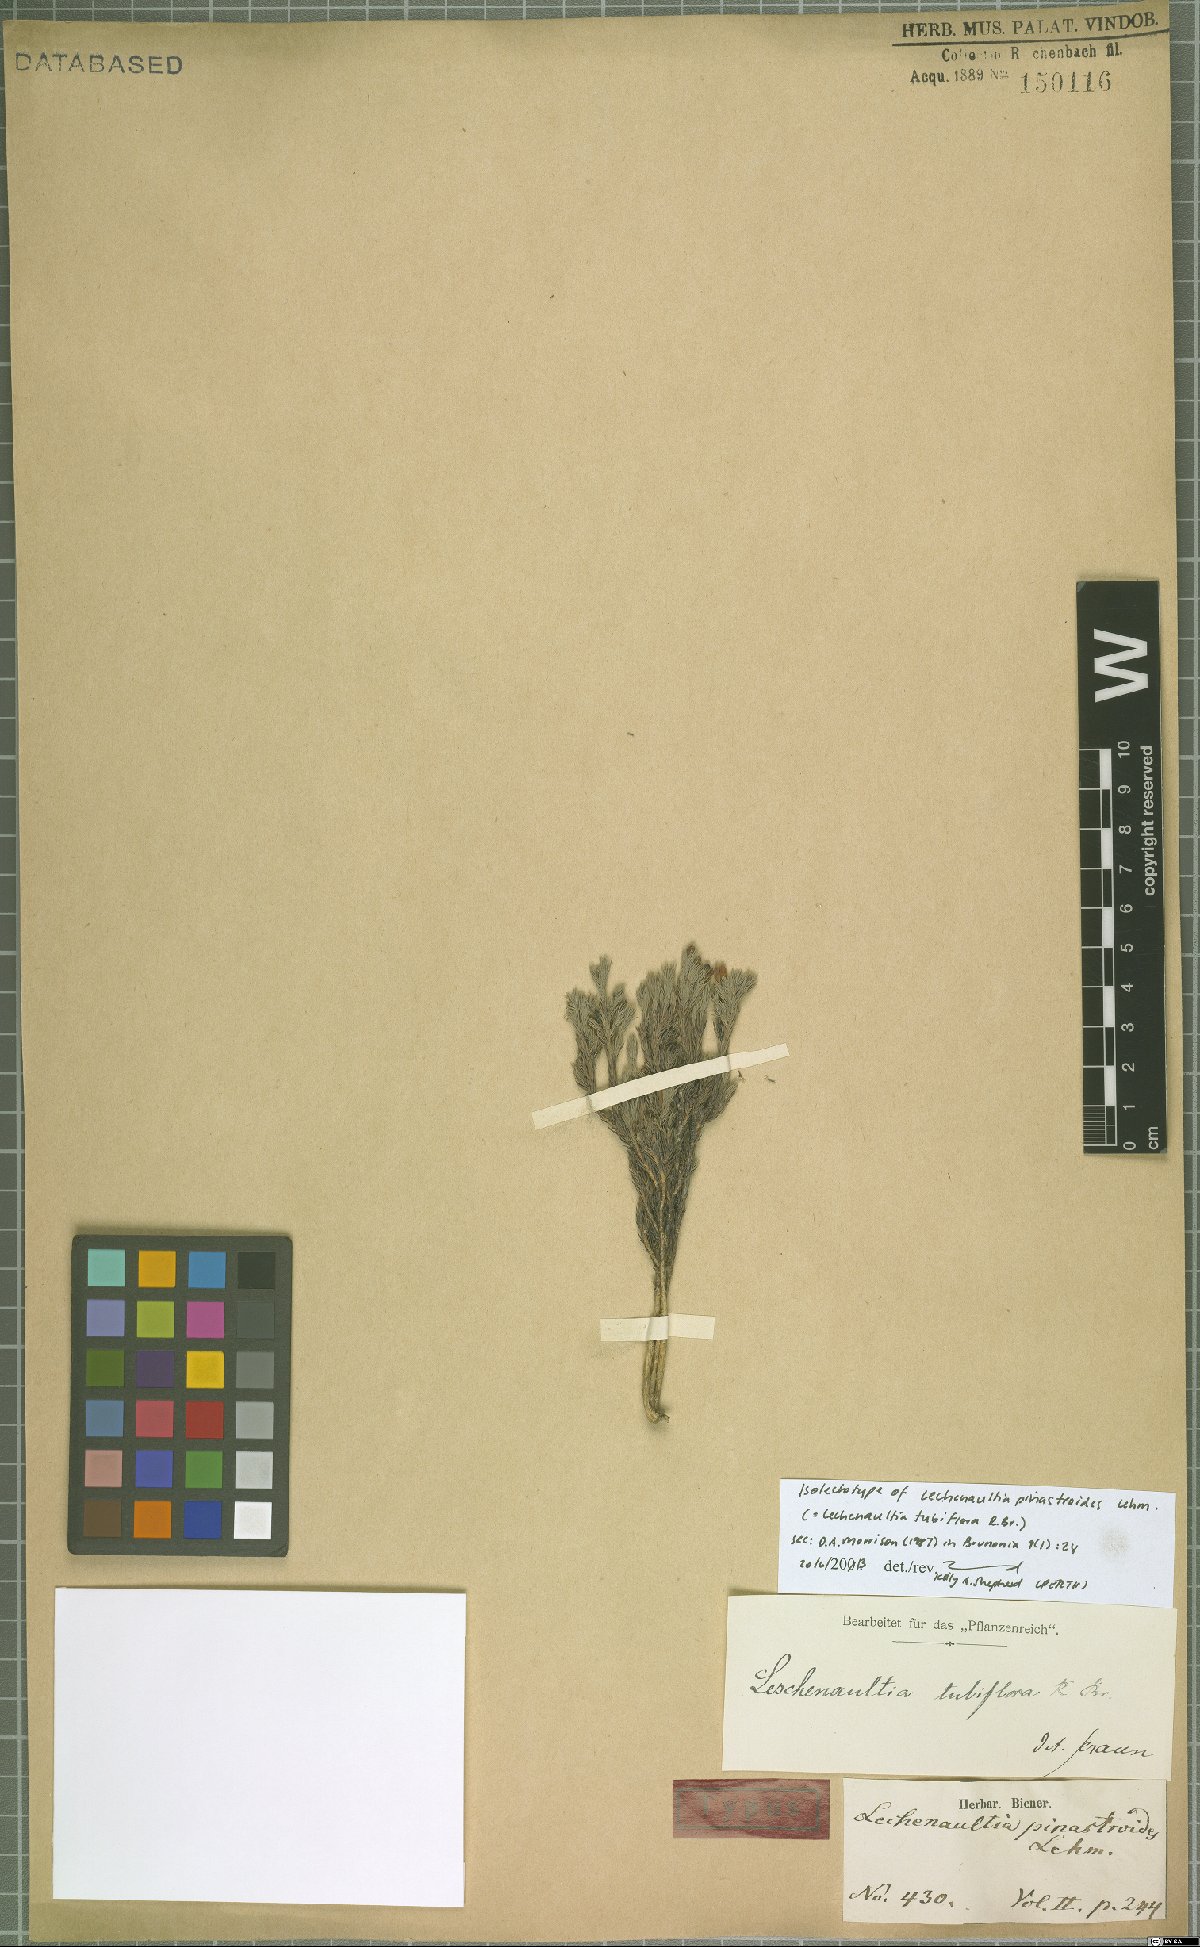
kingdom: Plantae
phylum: Tracheophyta
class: Magnoliopsida
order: Asterales
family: Goodeniaceae
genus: Lechenaultia
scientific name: Lechenaultia tubiflora
